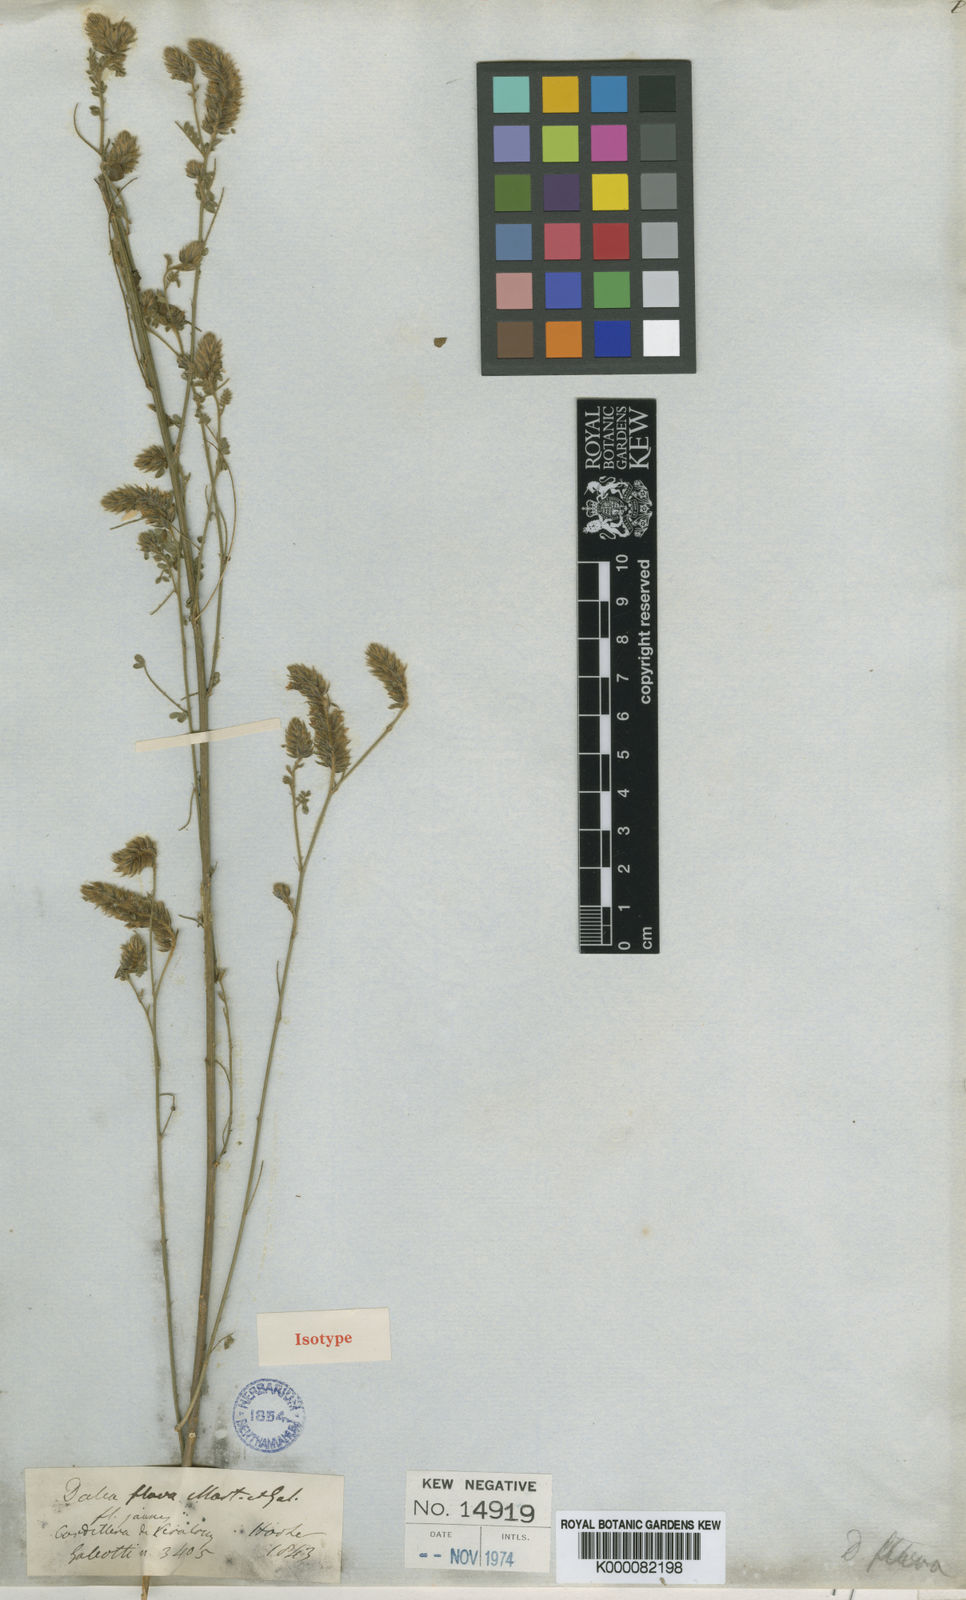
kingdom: Plantae
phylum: Tracheophyta
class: Magnoliopsida
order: Fabales
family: Fabaceae
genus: Dalea
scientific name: Dalea elata
